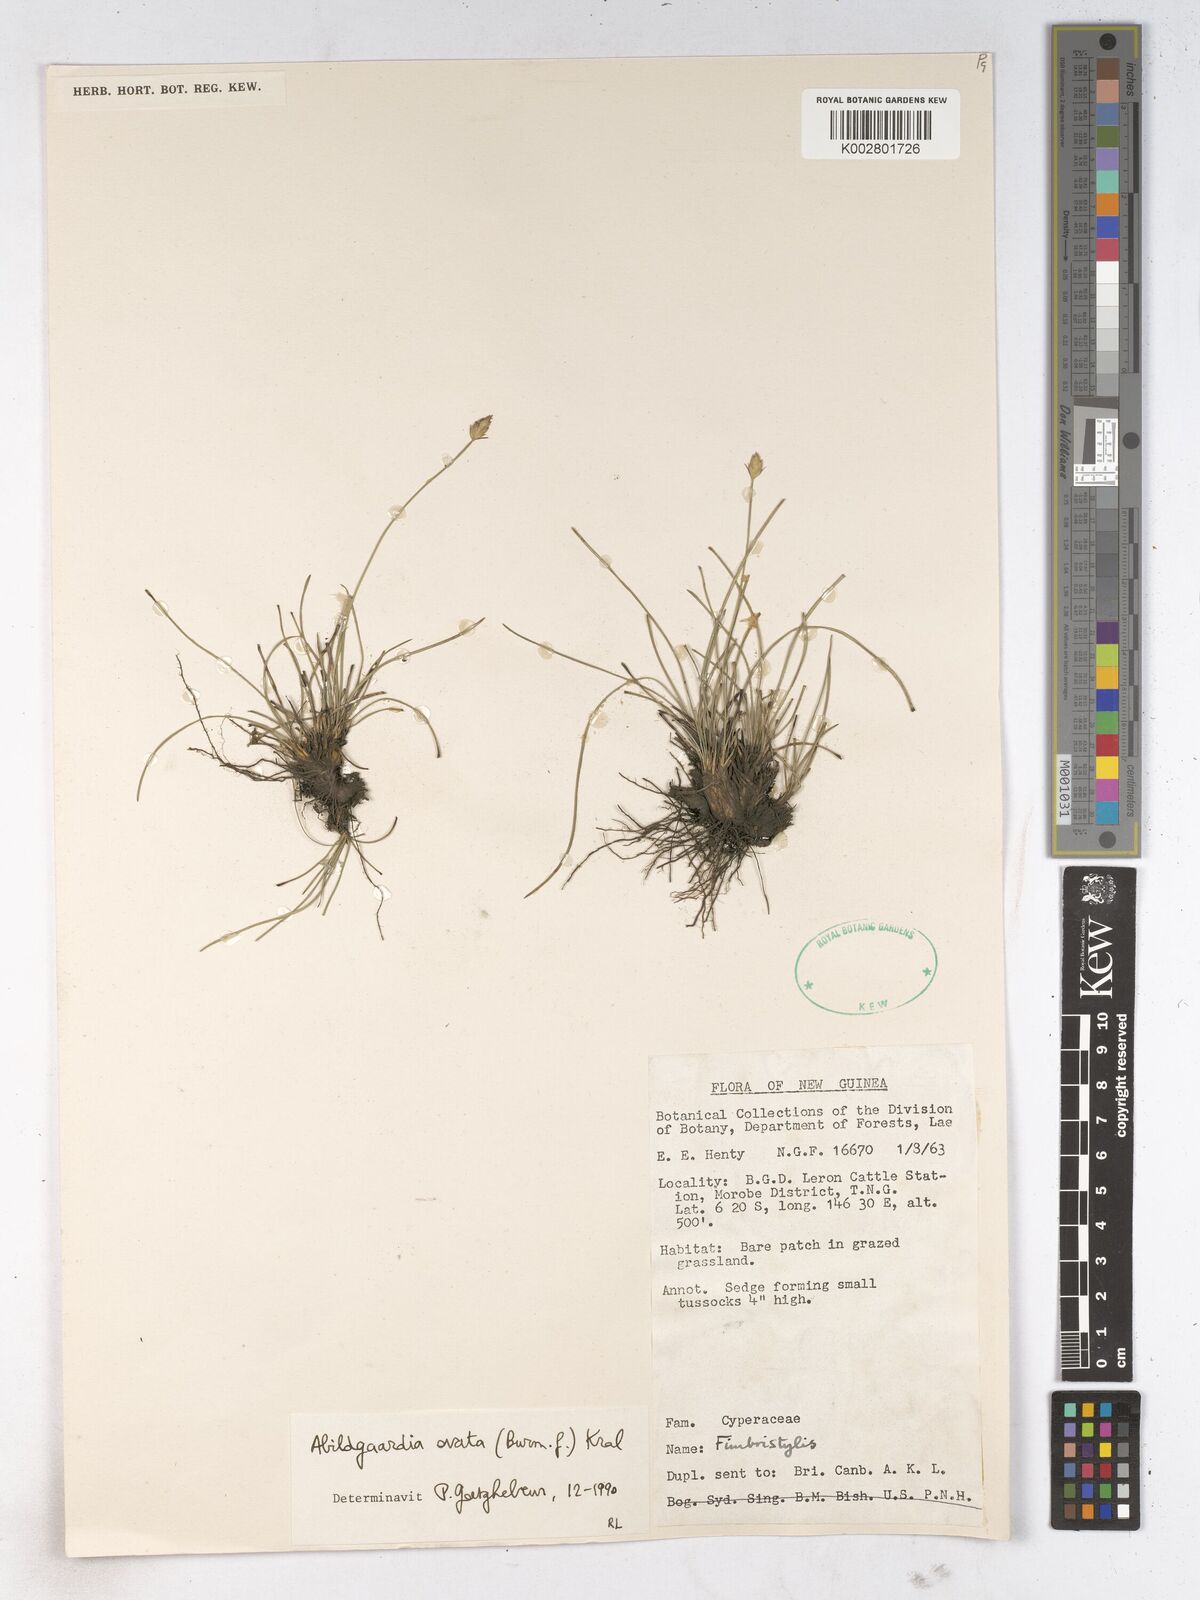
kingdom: Plantae
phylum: Tracheophyta
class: Liliopsida
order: Poales
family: Cyperaceae
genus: Abildgaardia
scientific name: Abildgaardia ovata
